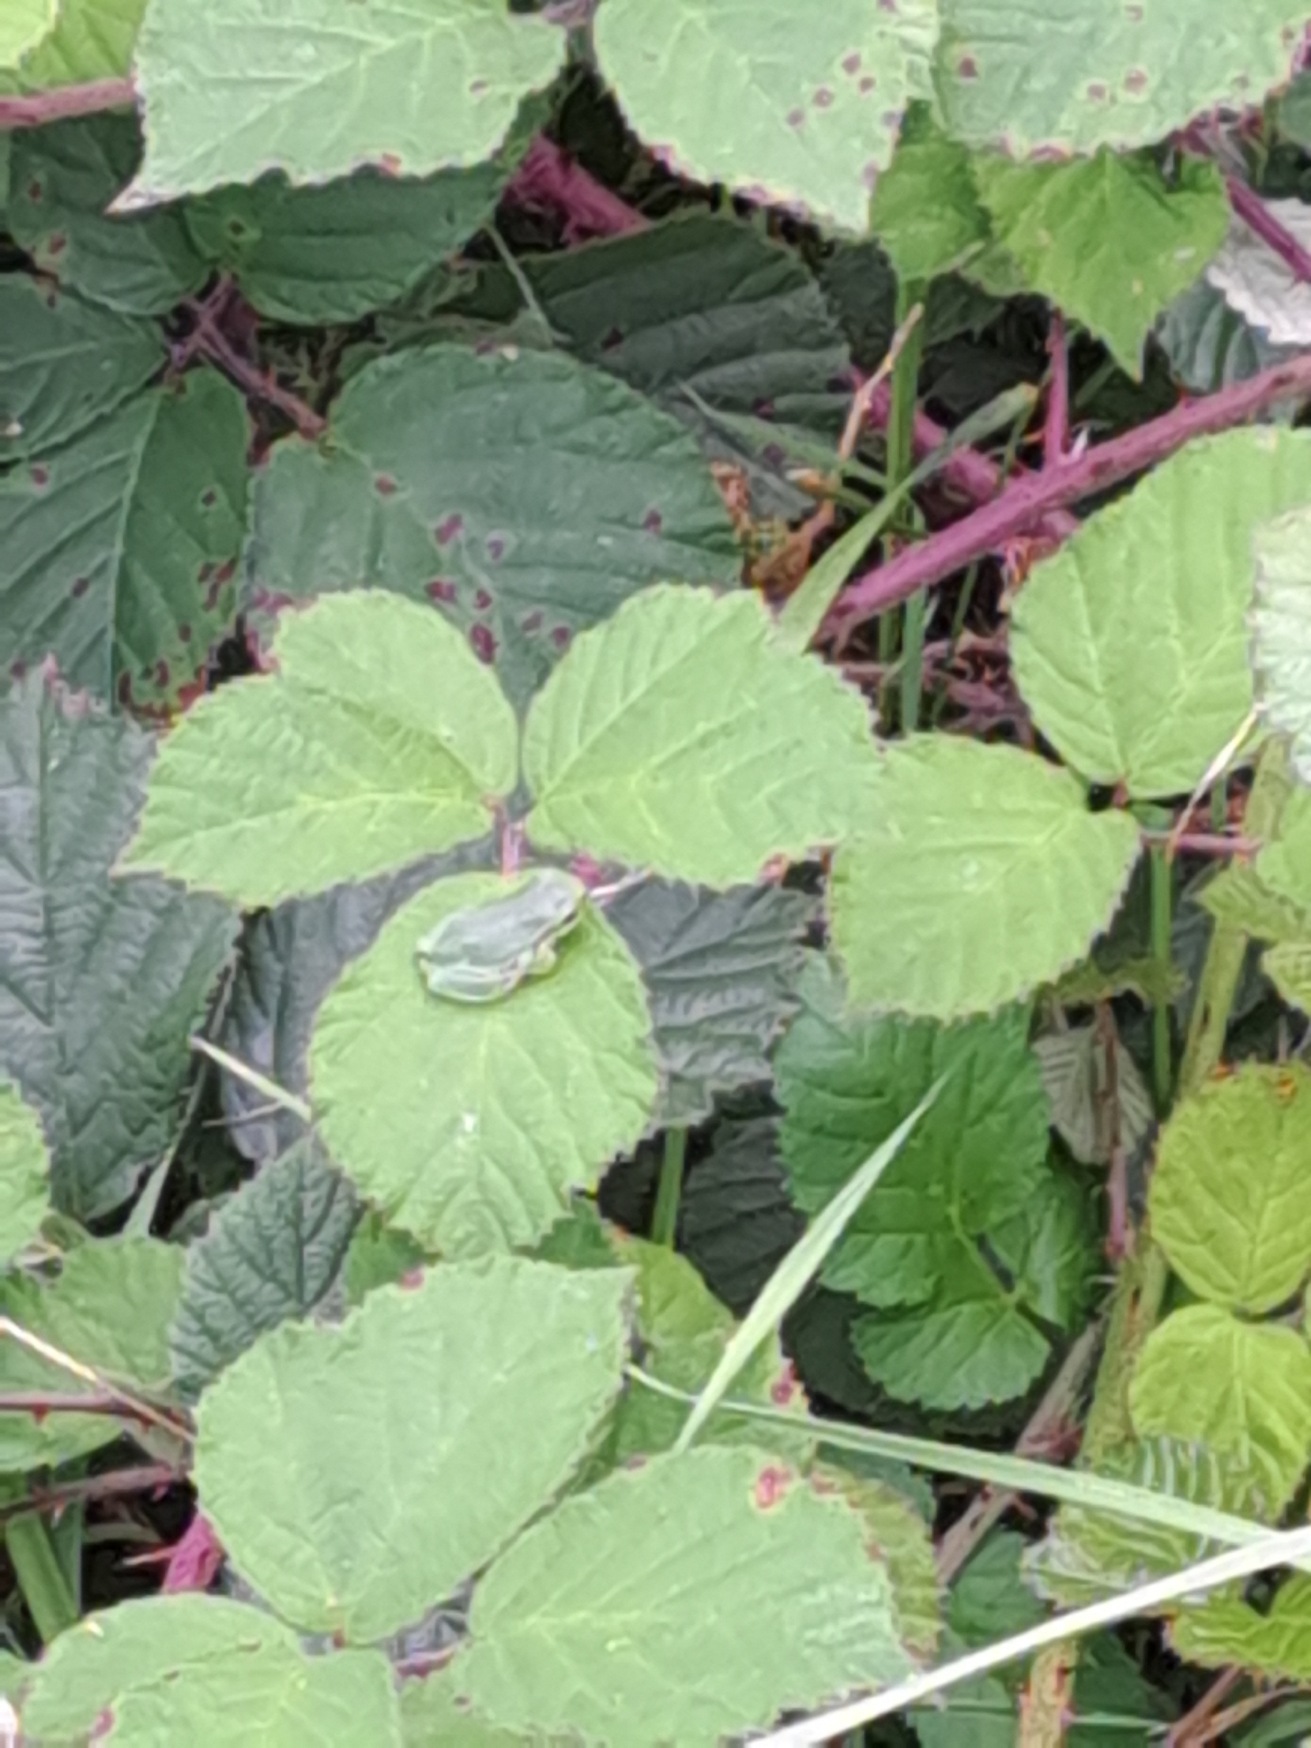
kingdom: Animalia
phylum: Chordata
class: Amphibia
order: Anura
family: Hylidae
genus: Hyla
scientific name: Hyla arborea
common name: Løvfrø
